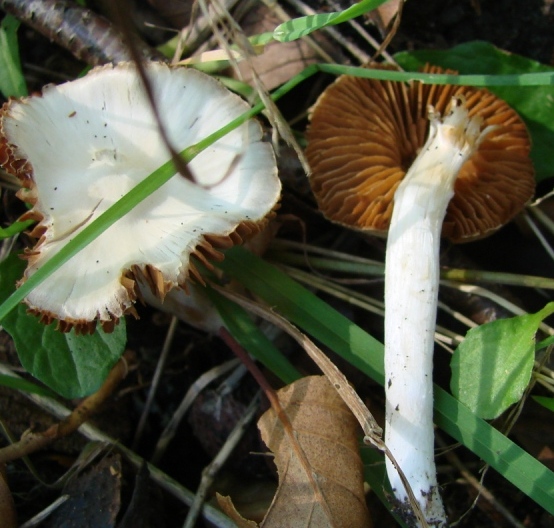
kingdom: Fungi
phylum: Basidiomycota
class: Agaricomycetes
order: Agaricales
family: Cortinariaceae
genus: Thaxterogaster
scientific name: Thaxterogaster barbatus
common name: elfenbens-slørhat
